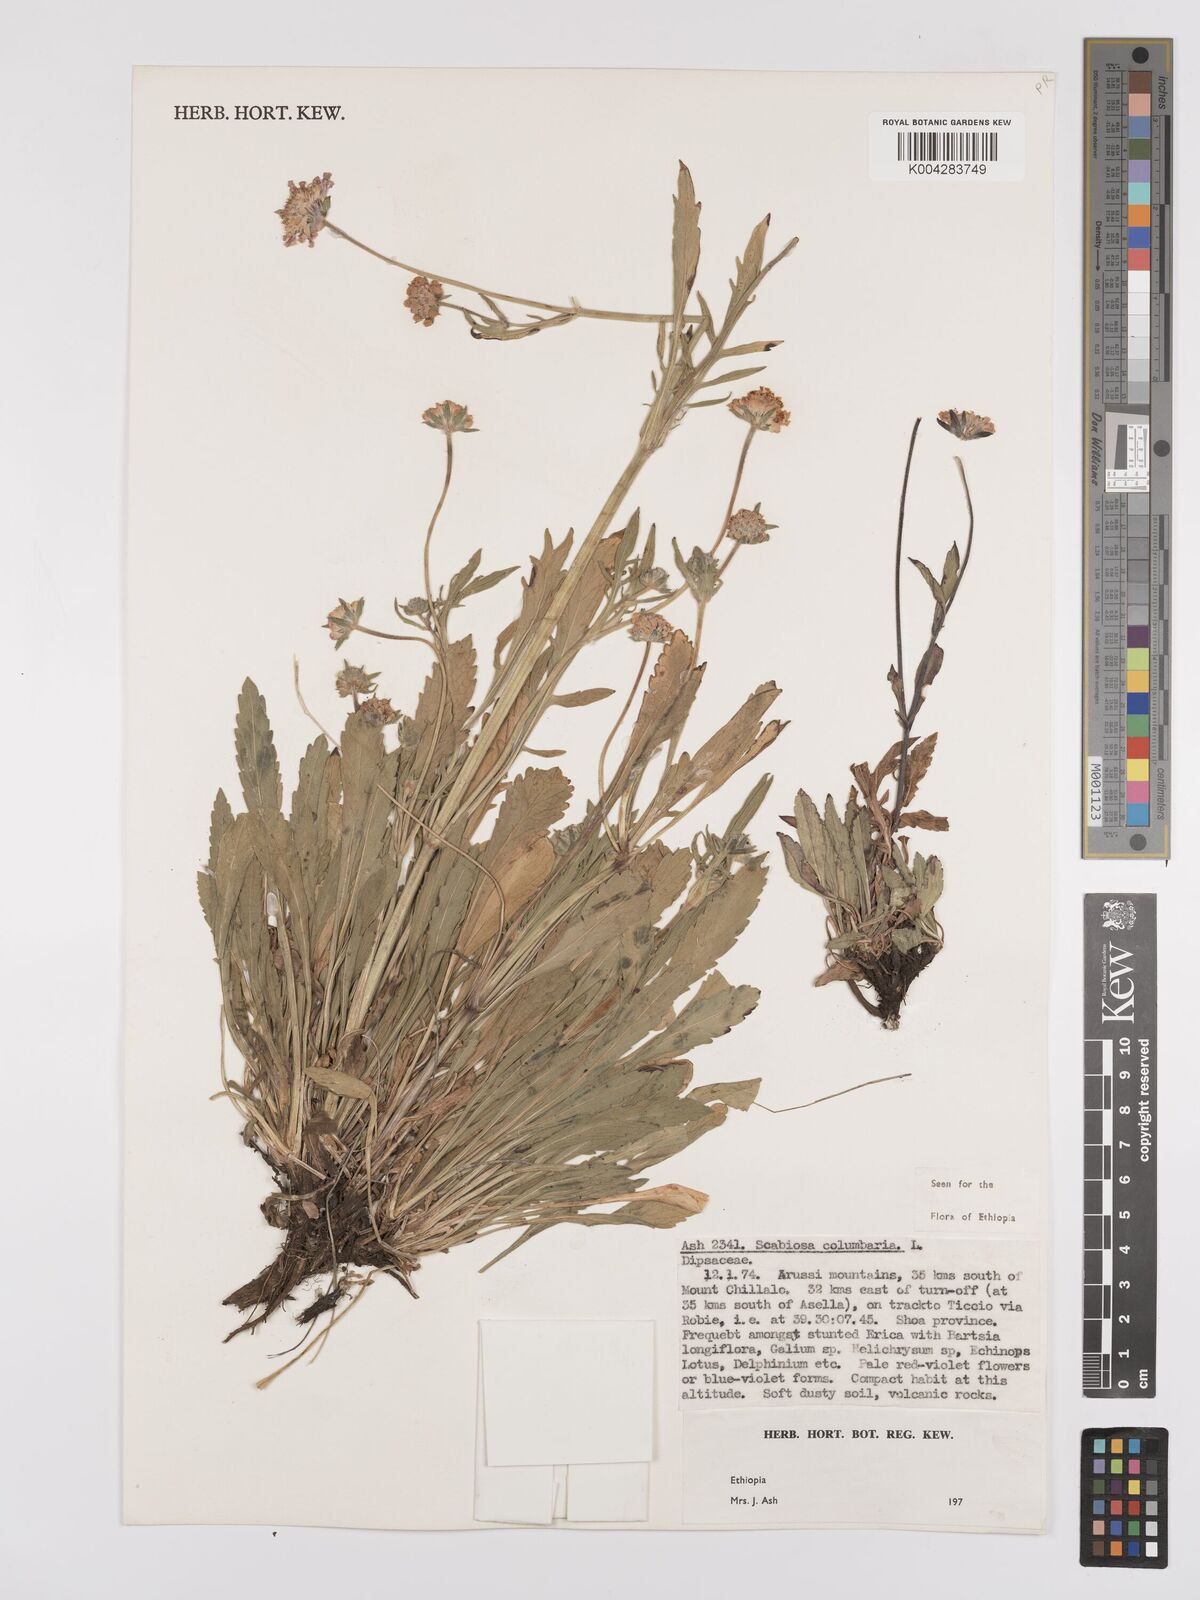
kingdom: Plantae
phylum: Tracheophyta
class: Magnoliopsida
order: Dipsacales
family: Caprifoliaceae
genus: Scabiosa
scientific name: Scabiosa columbaria
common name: Small scabious
